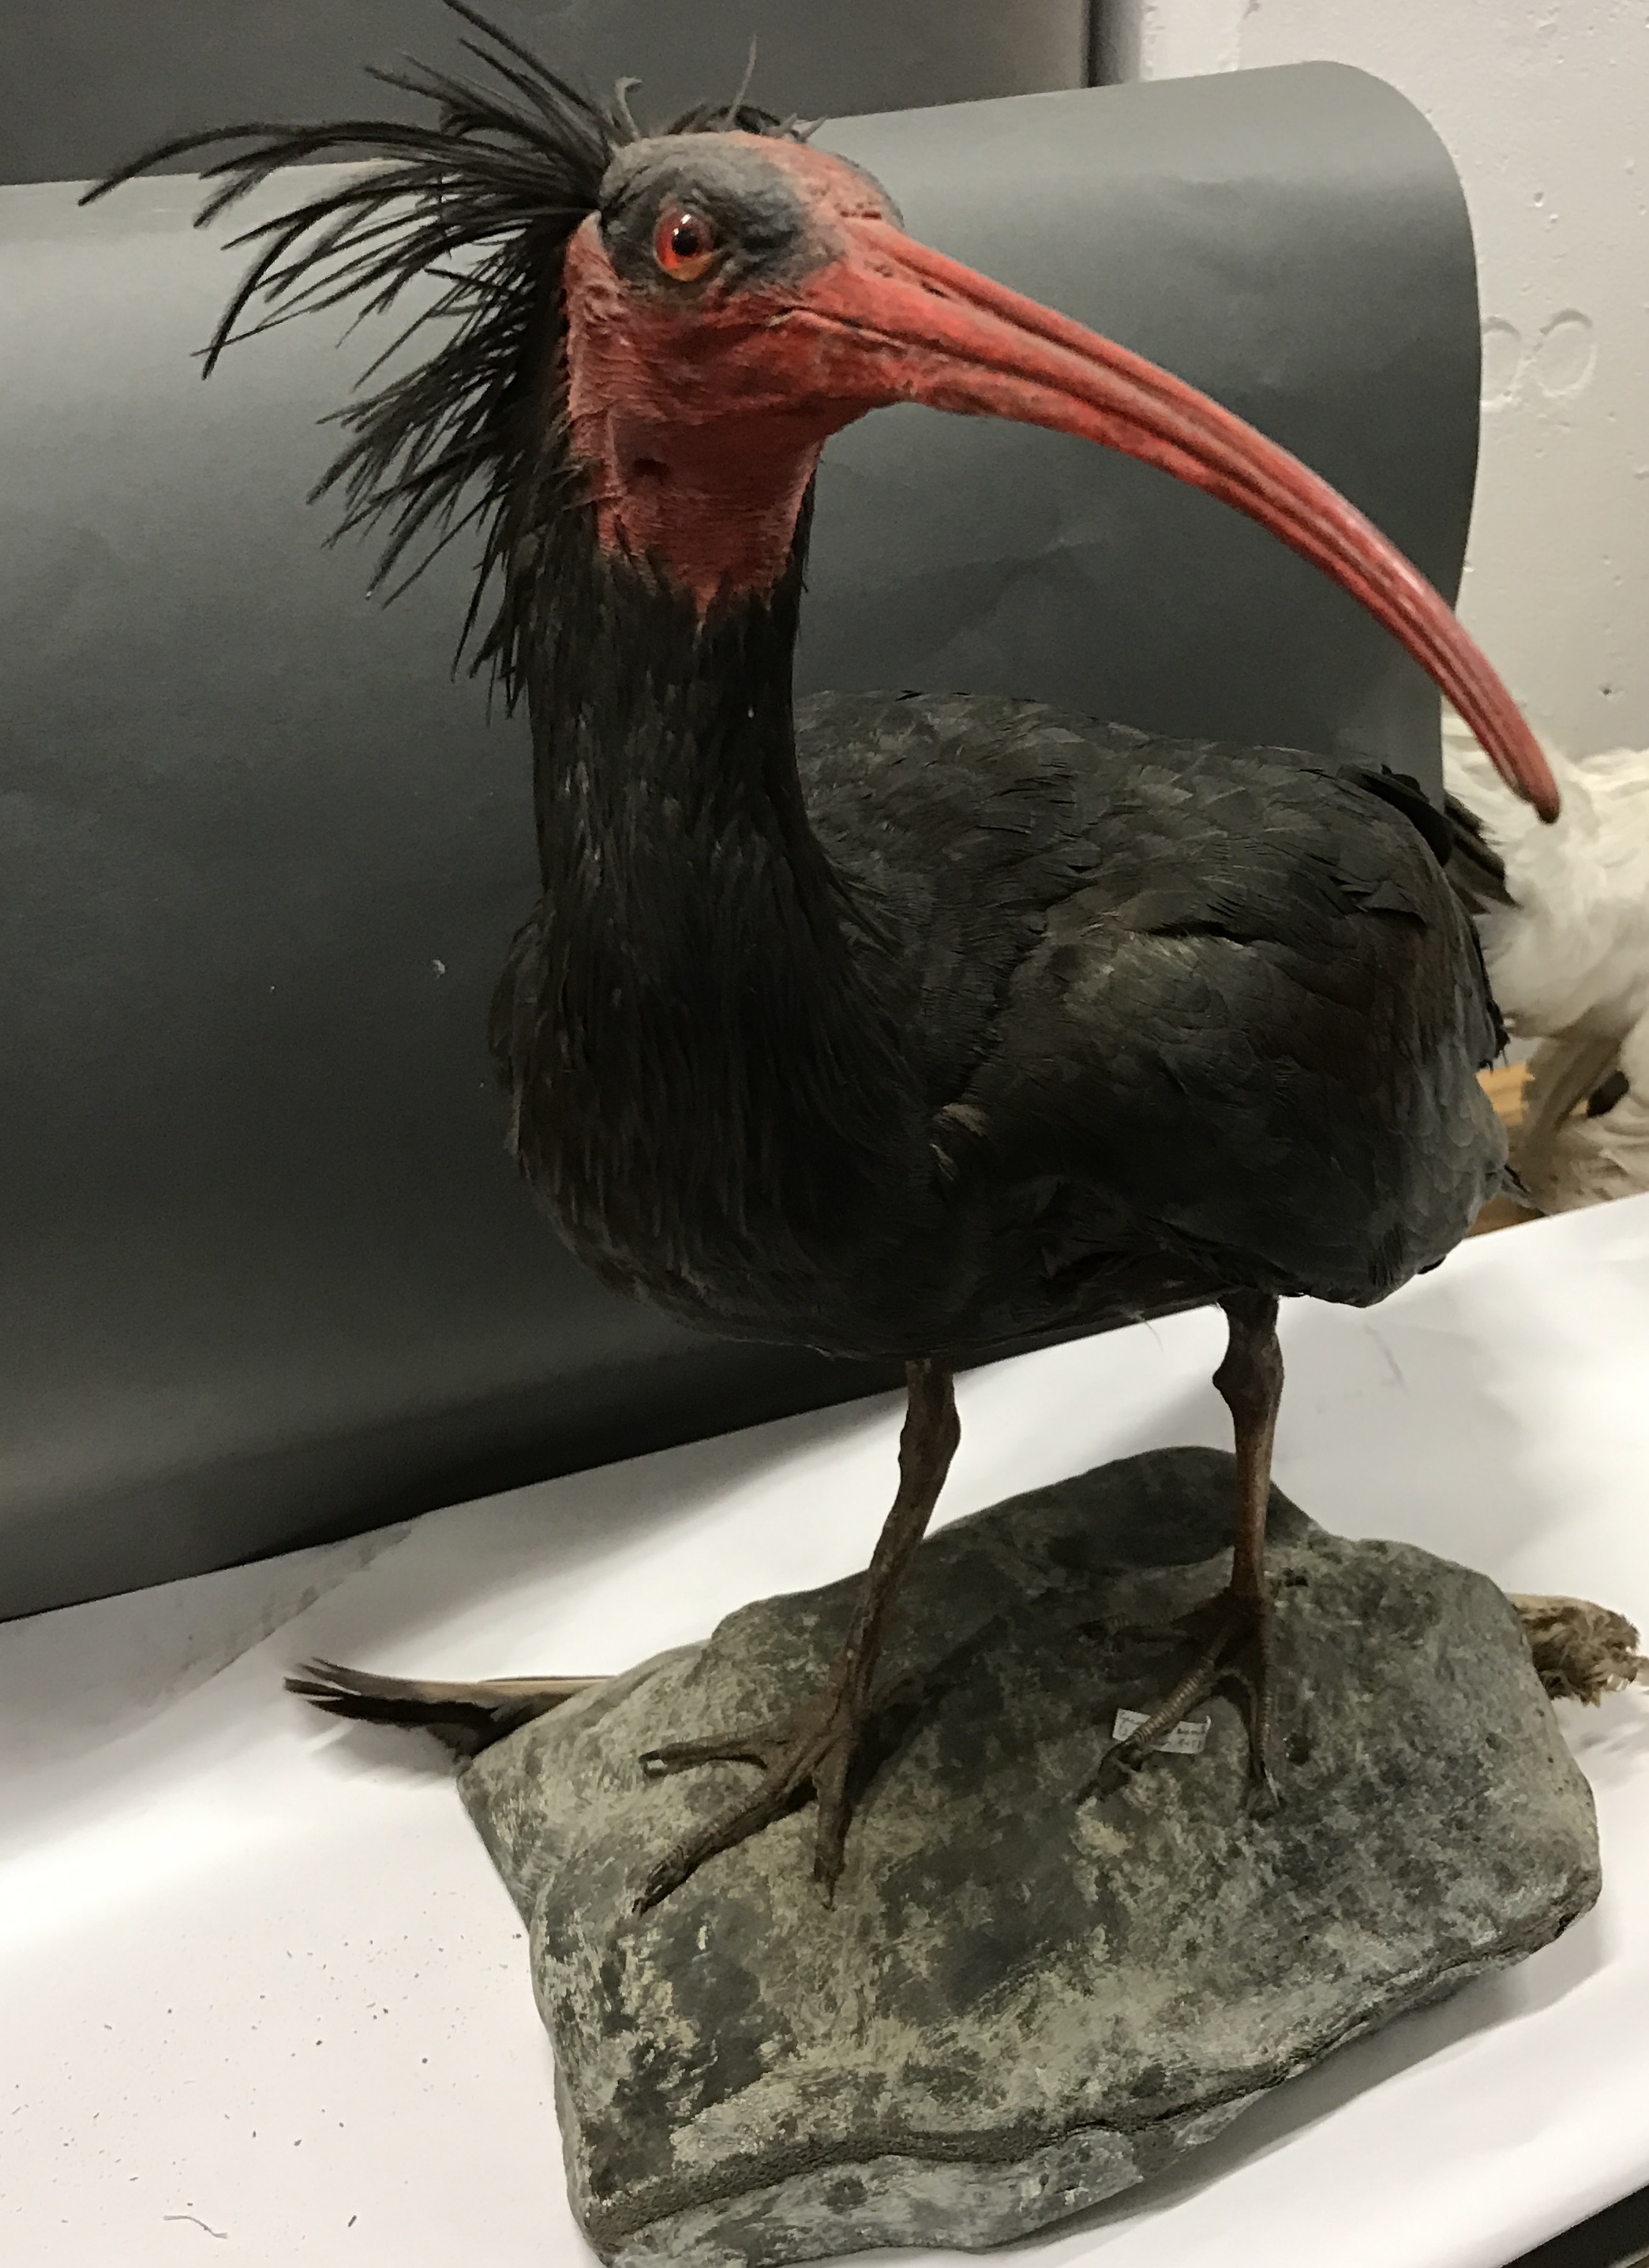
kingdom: Animalia
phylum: Chordata
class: Aves
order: Pelecaniformes
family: Threskiornithidae
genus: Geronticus
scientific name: Geronticus eremita
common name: Northern bald ibis
